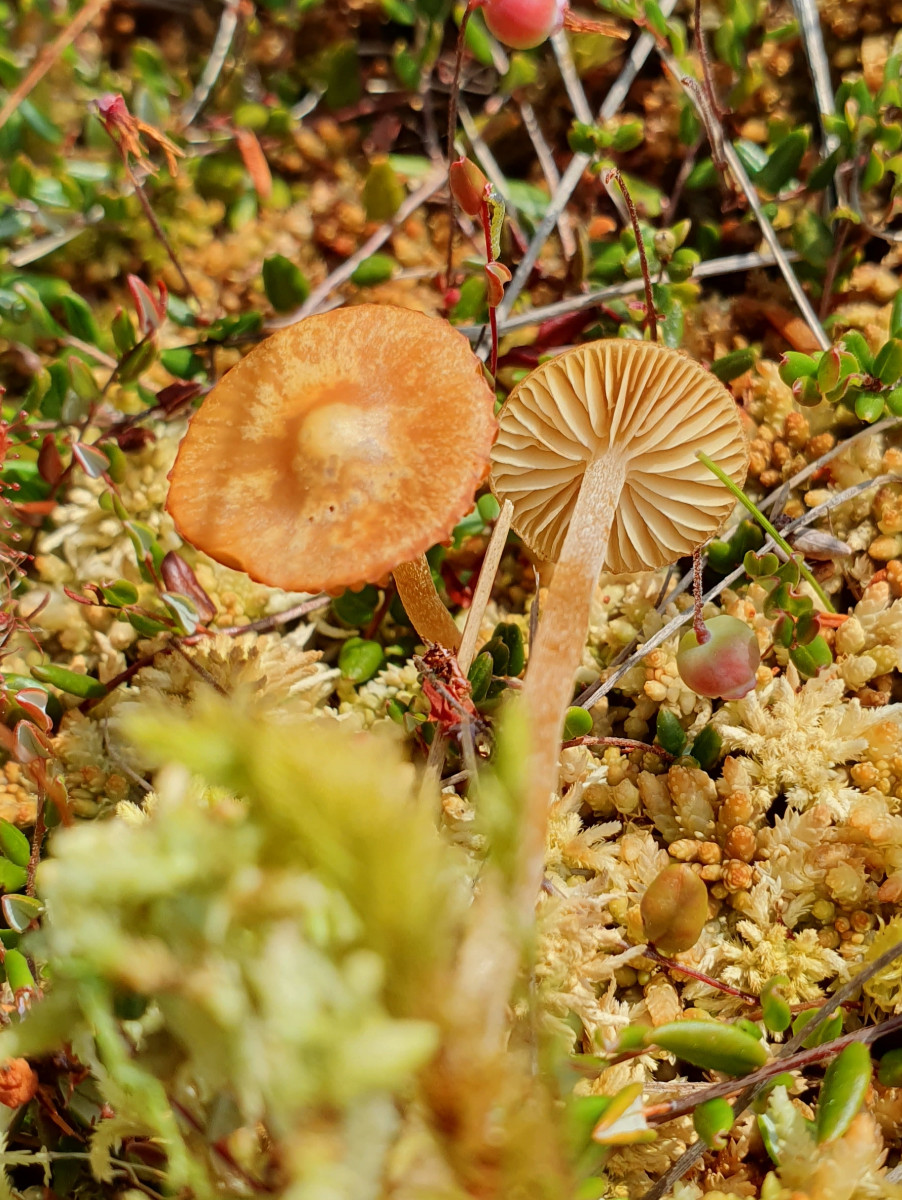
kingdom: Fungi
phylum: Basidiomycota
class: Agaricomycetes
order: Agaricales
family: Hymenogastraceae
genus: Galerina
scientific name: Galerina hybrida
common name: hængesæk-hjelmhat
